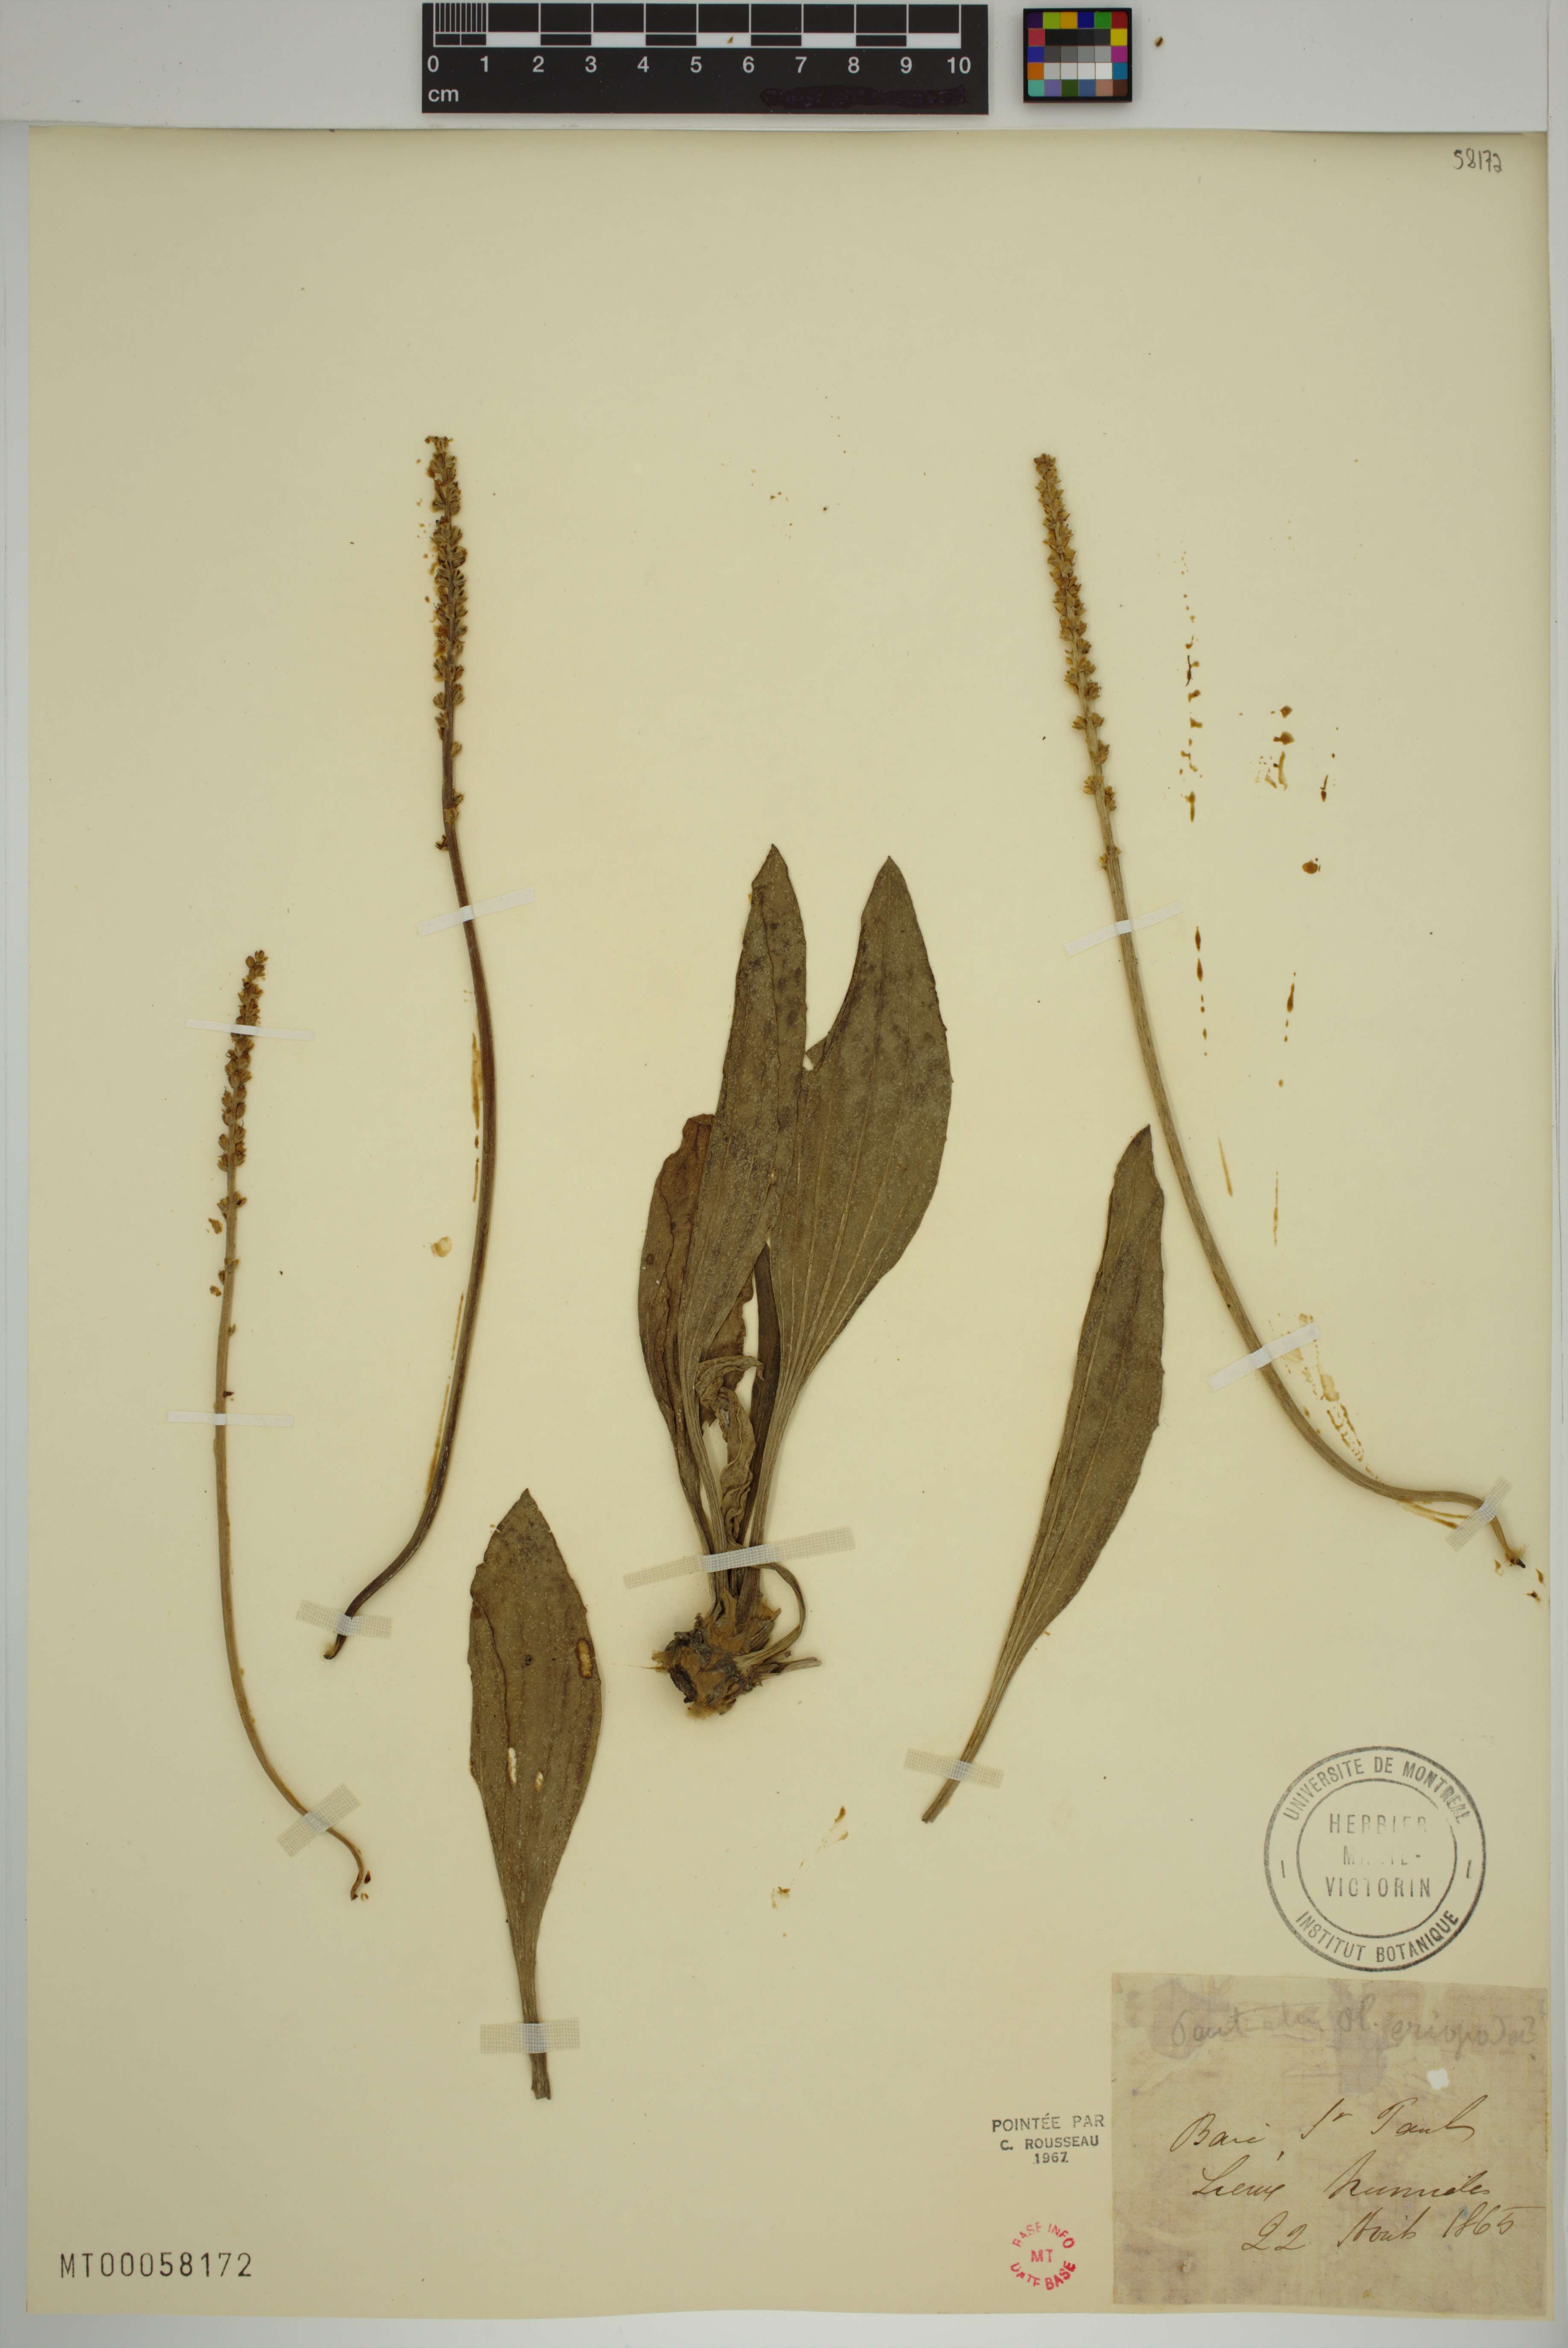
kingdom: Plantae
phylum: Tracheophyta
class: Magnoliopsida
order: Lamiales
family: Plantaginaceae
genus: Plantago
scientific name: Plantago eriopoda
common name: Alkali plantain
